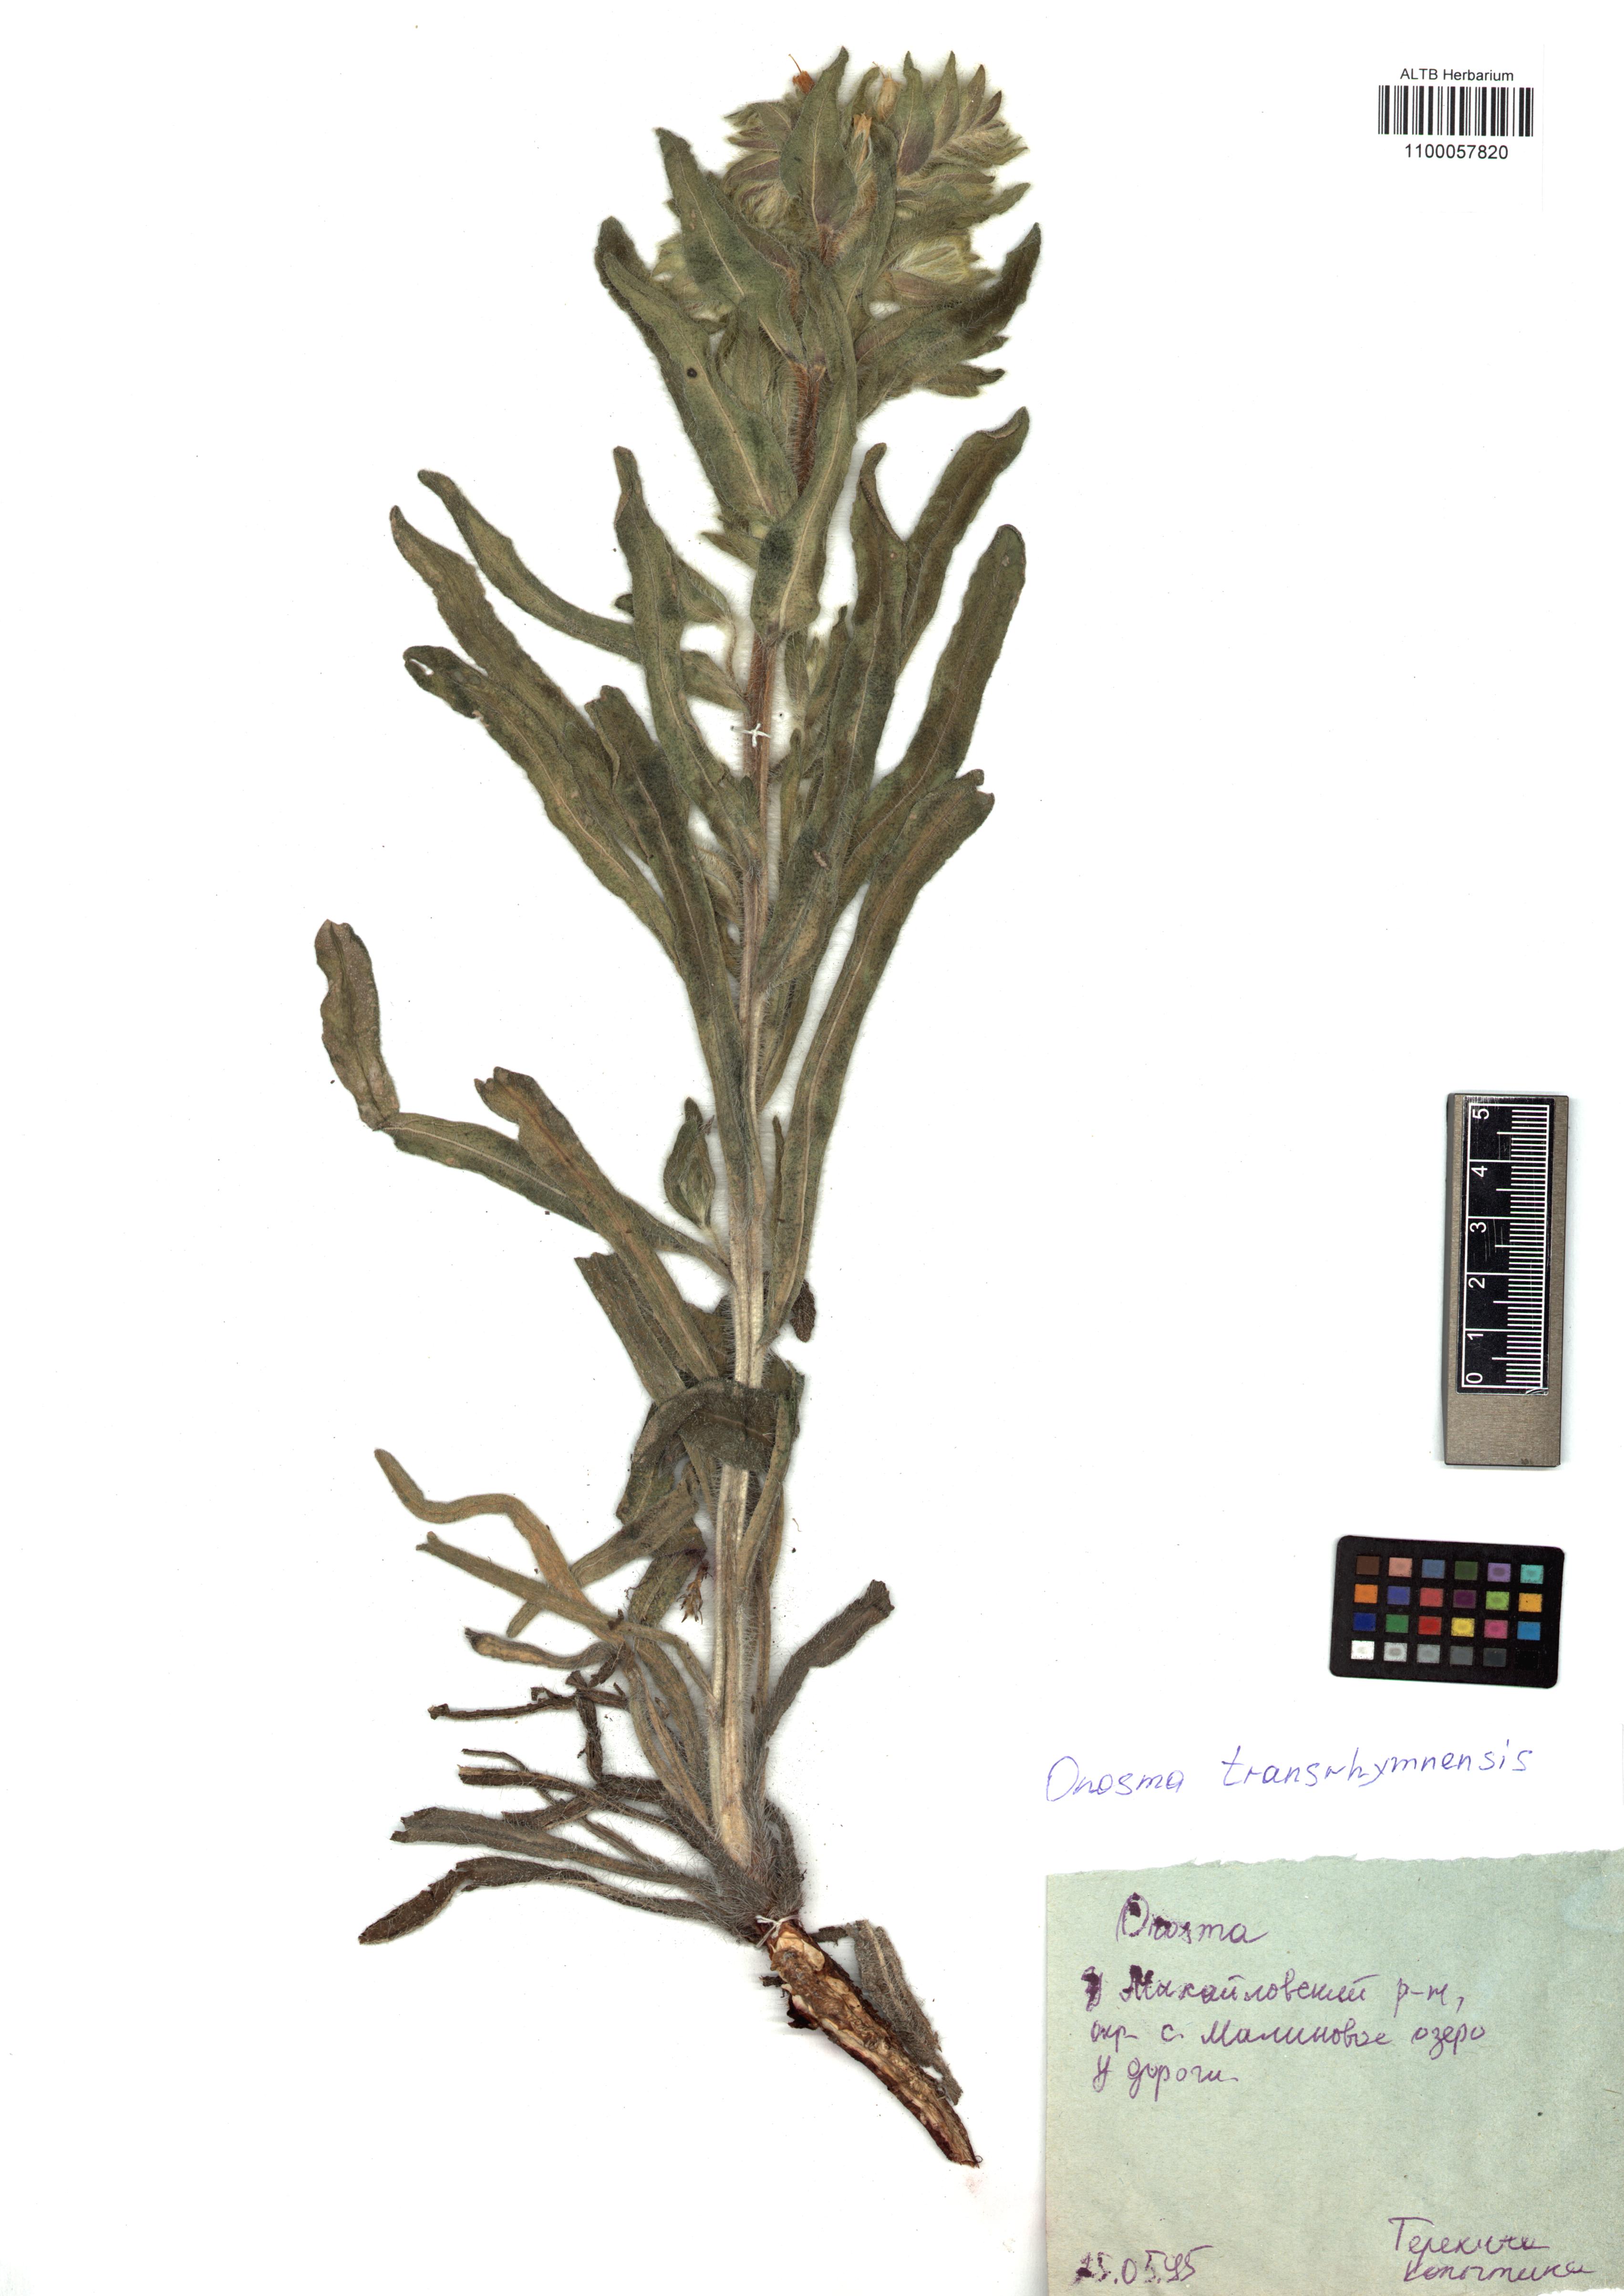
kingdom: Plantae
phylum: Tracheophyta
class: Magnoliopsida
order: Boraginales
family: Boraginaceae
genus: Onosma
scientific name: Onosma transrhymnensis
